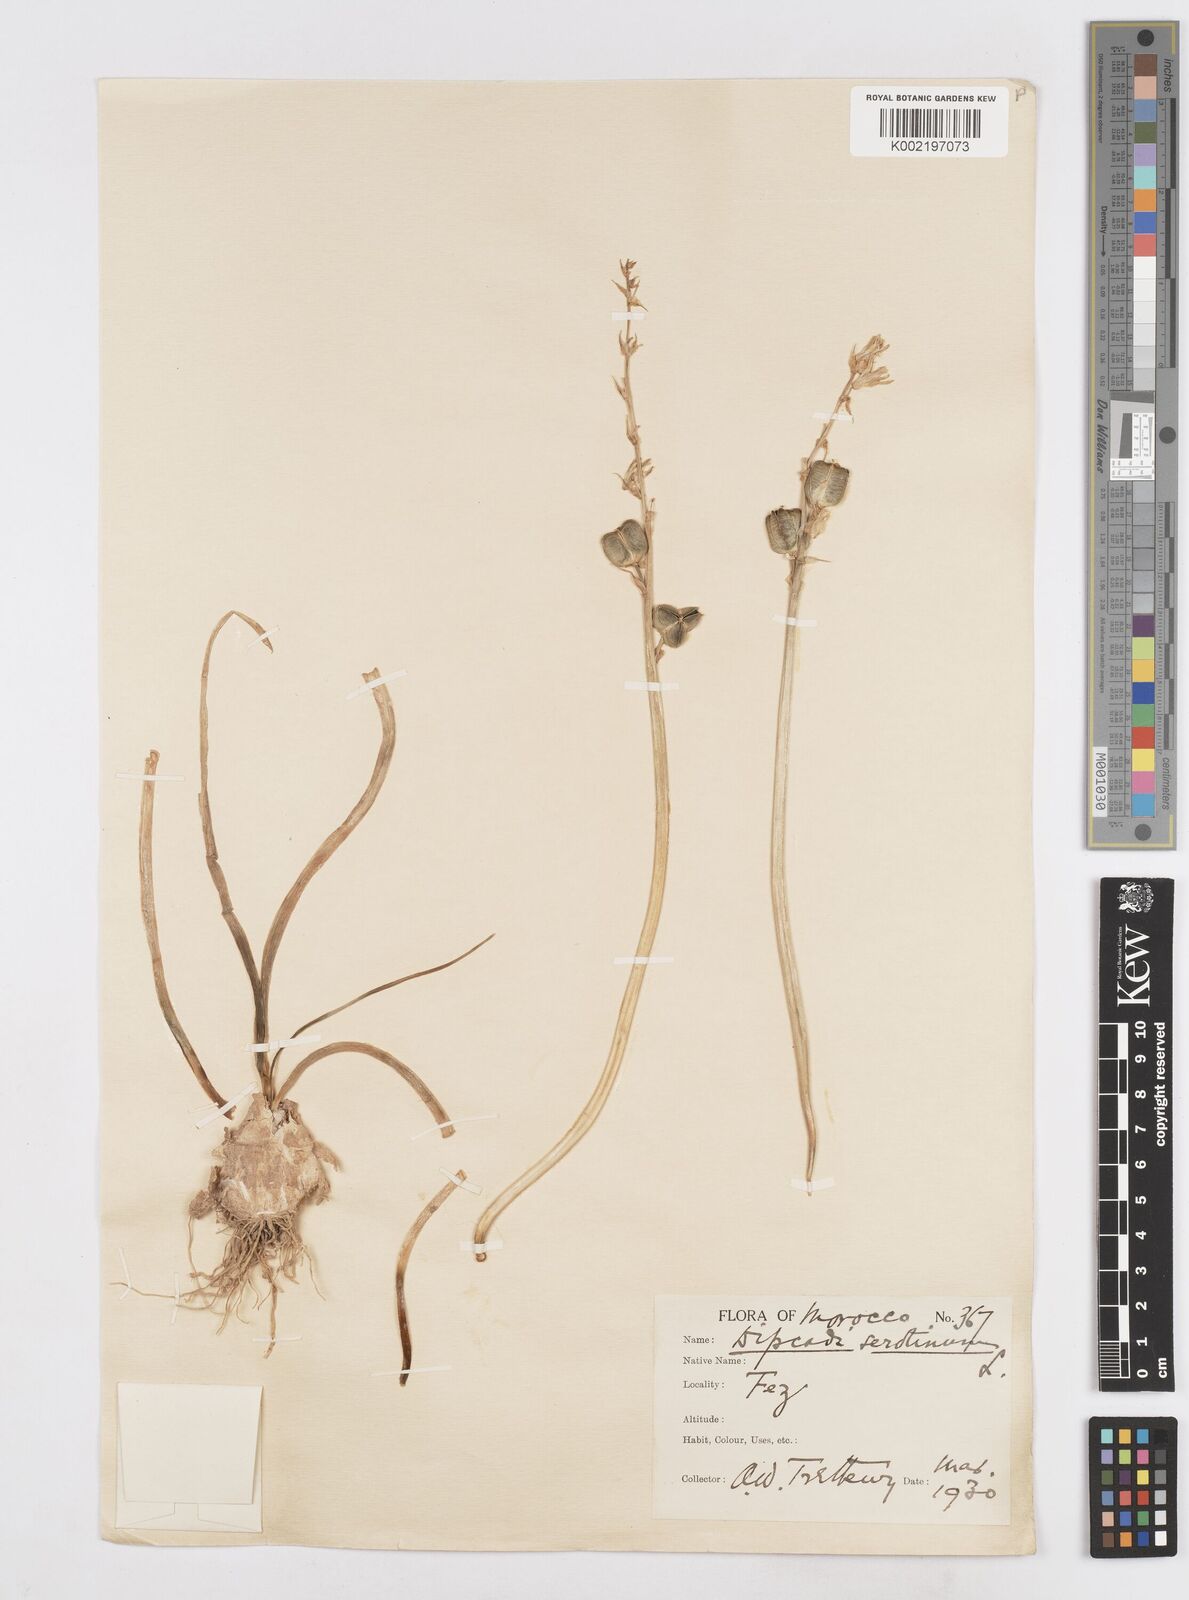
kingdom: Plantae
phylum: Tracheophyta
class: Liliopsida
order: Asparagales
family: Asparagaceae
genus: Dipcadi
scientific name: Dipcadi serotinum
